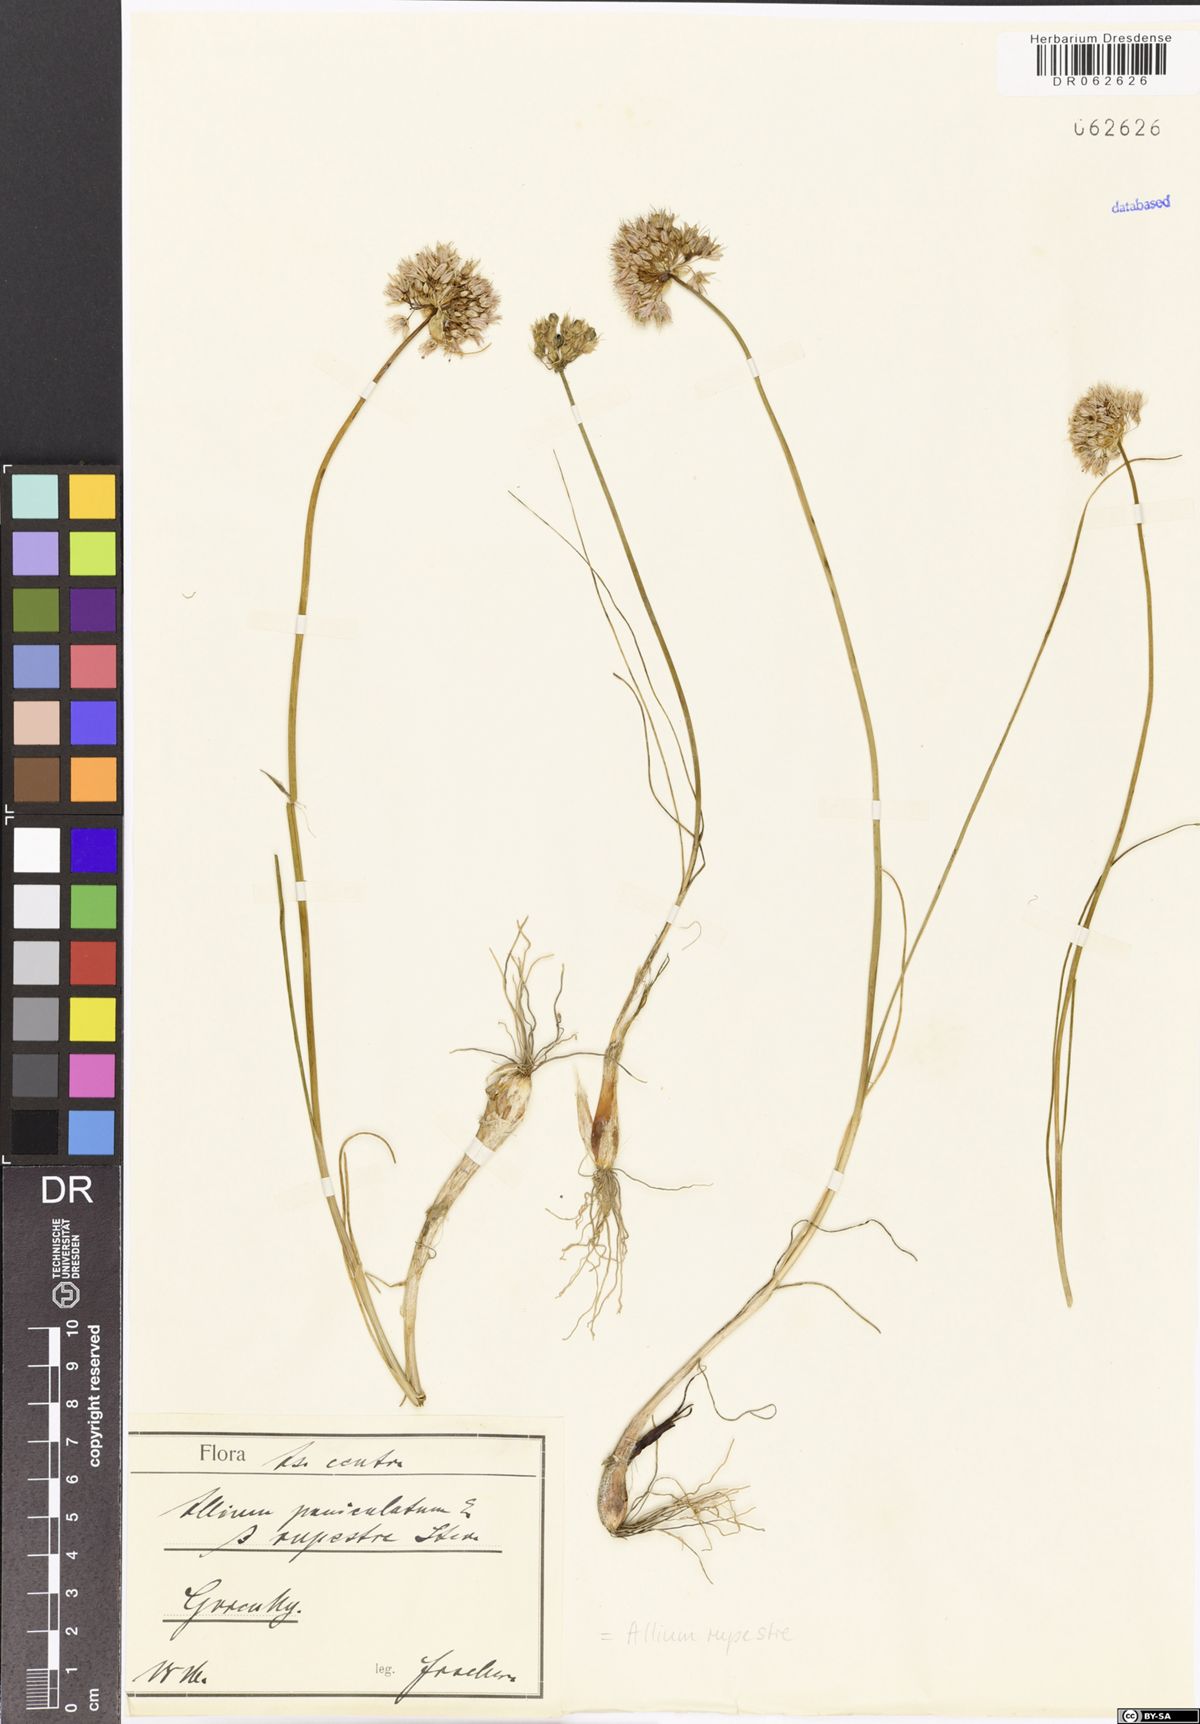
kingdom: Plantae
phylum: Tracheophyta
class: Liliopsida
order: Asparagales
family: Amaryllidaceae
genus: Allium
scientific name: Allium rupestre
